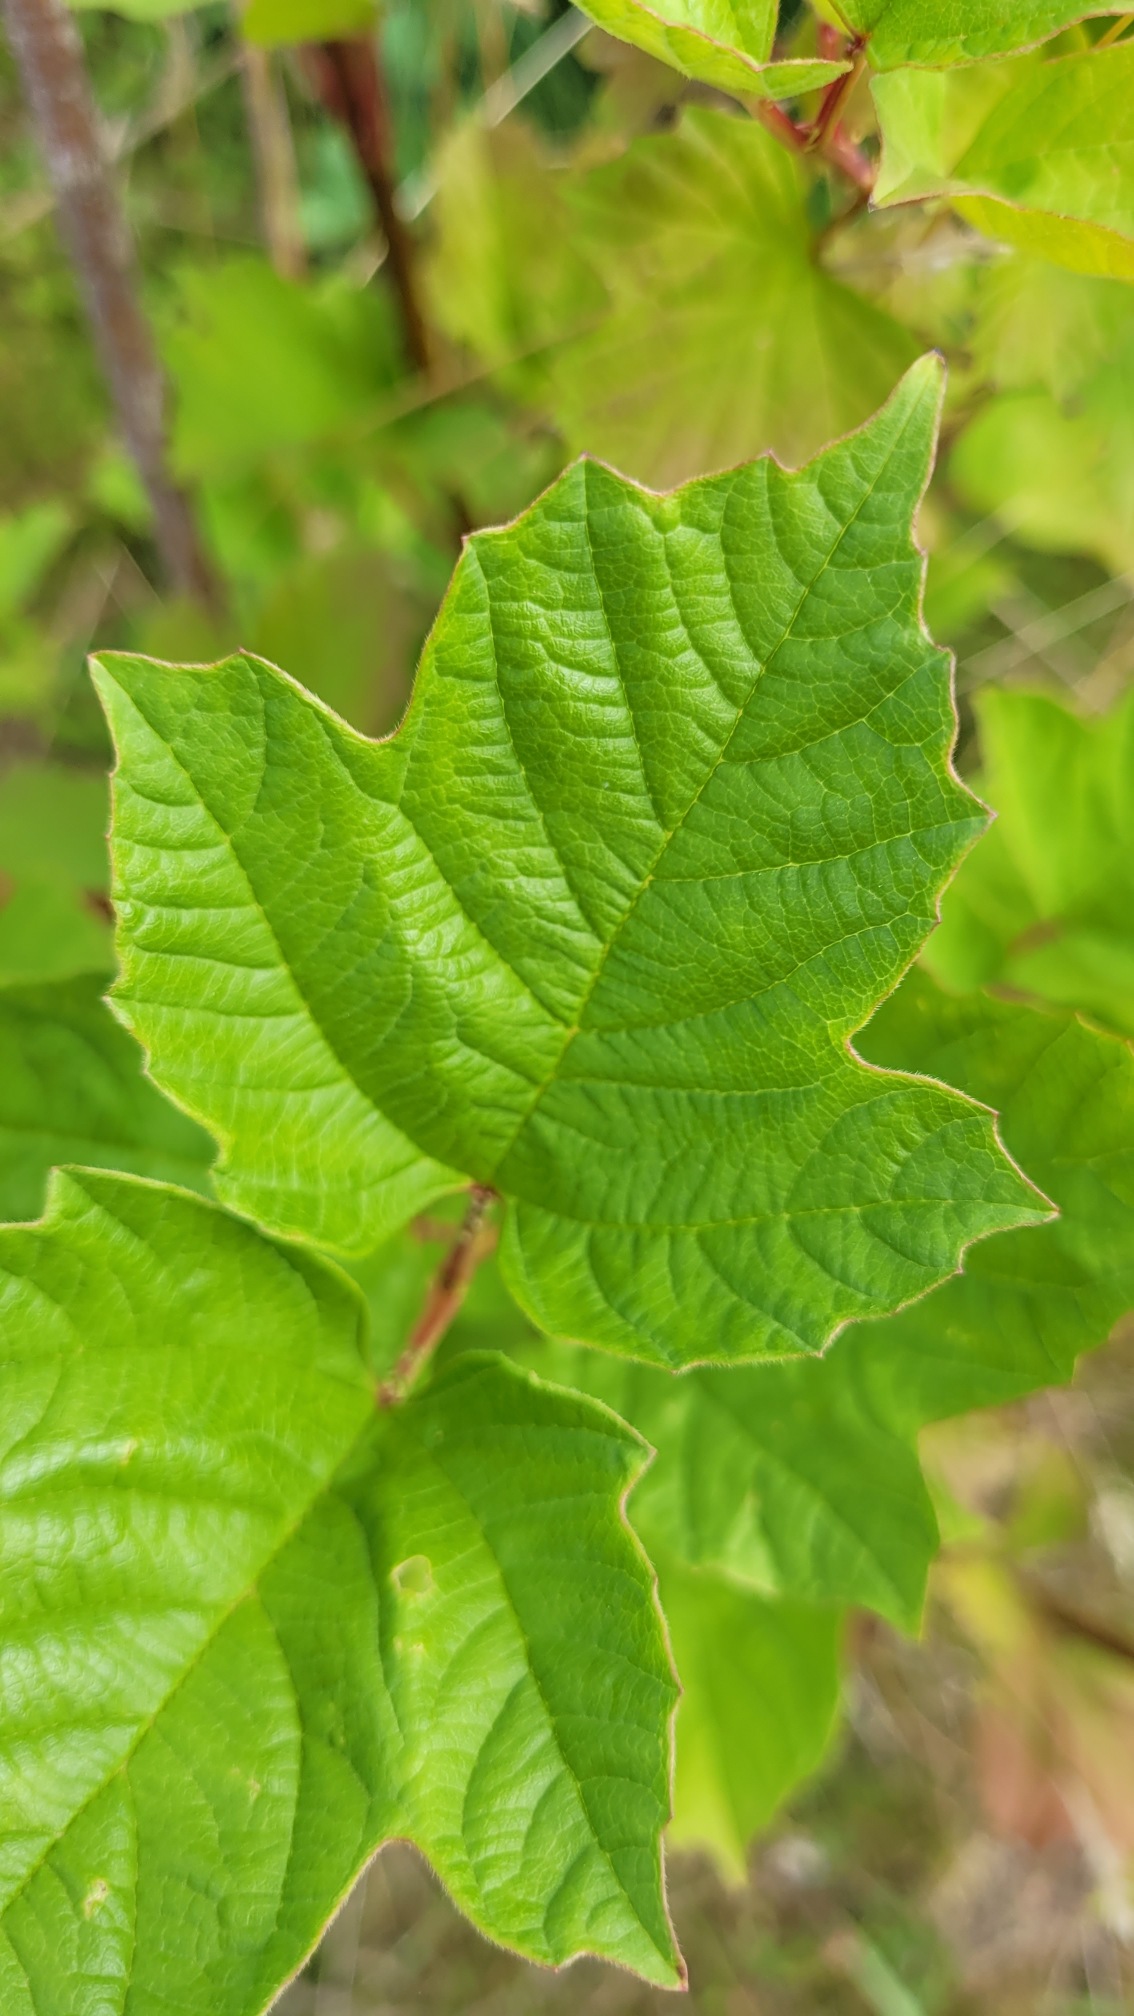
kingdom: Plantae
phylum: Tracheophyta
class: Magnoliopsida
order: Dipsacales
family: Viburnaceae
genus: Viburnum
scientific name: Viburnum opulus
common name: Kvalkved
